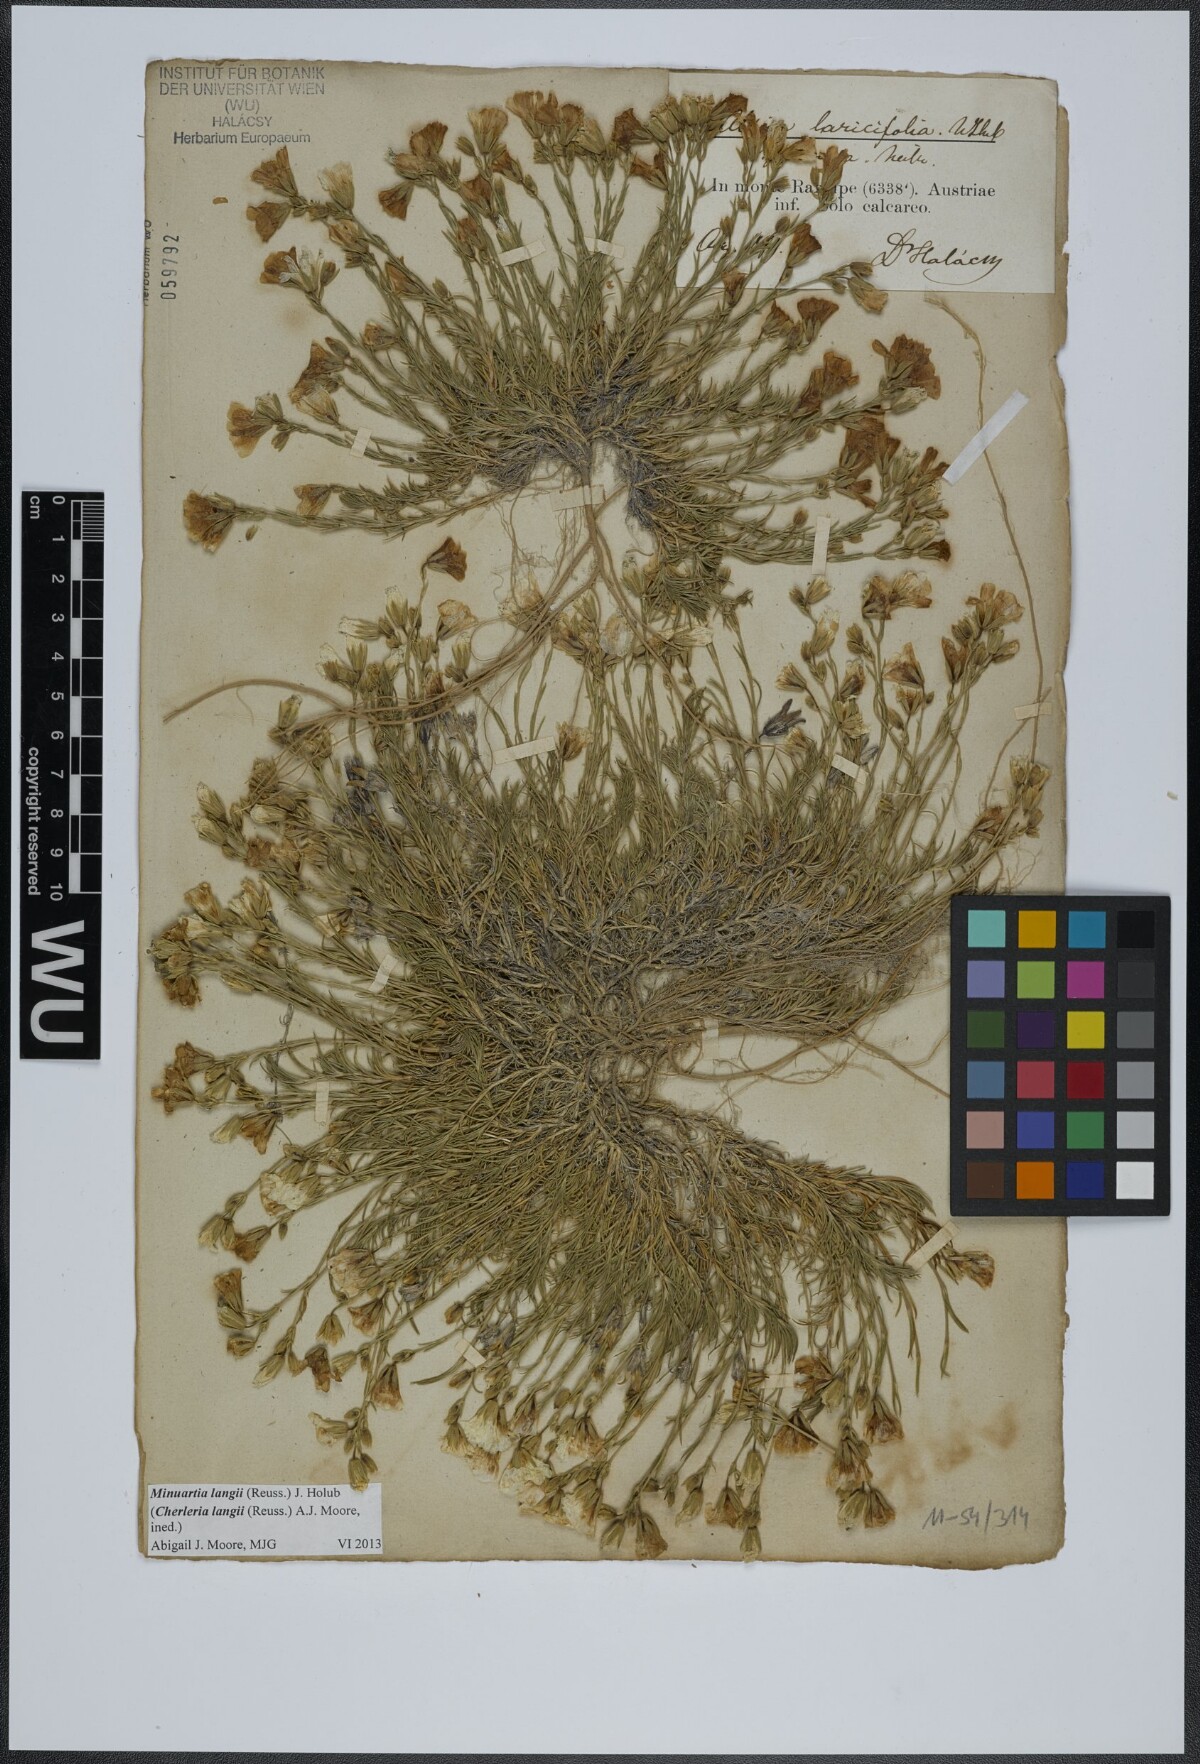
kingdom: Plantae
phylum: Tracheophyta
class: Magnoliopsida
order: Caryophyllales
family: Caryophyllaceae
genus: Cherleria
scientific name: Cherleria langii
